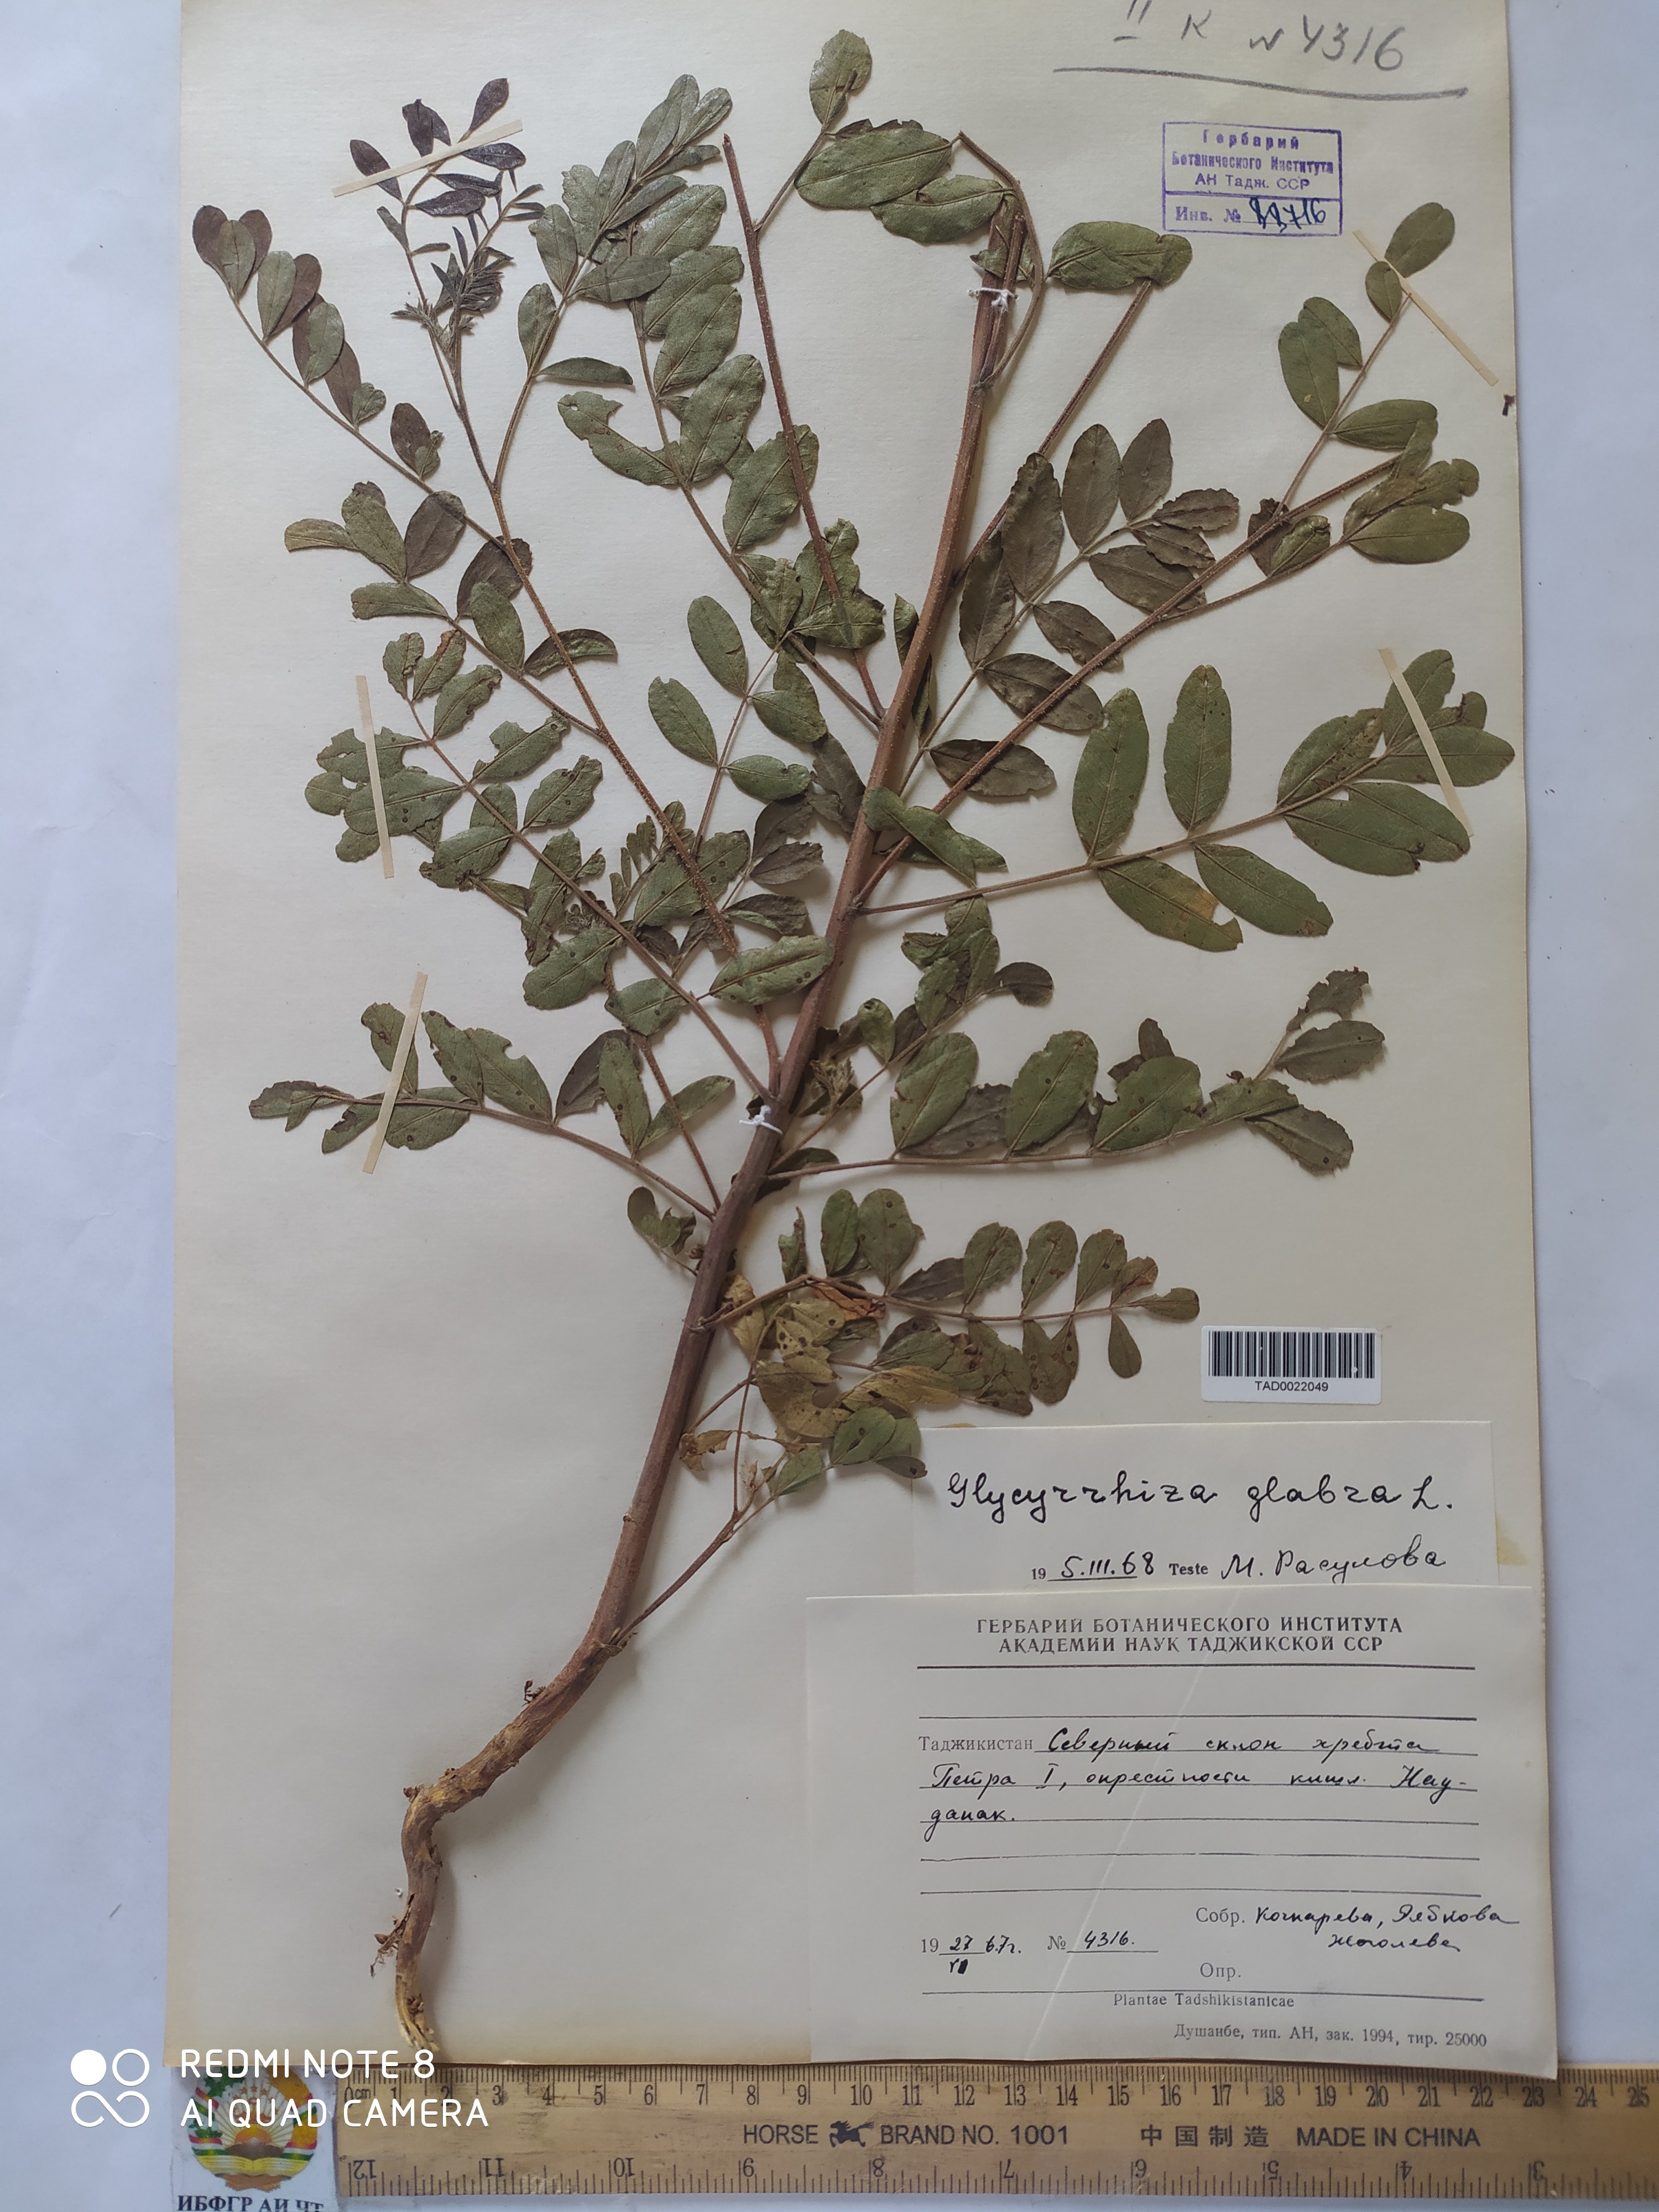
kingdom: Plantae
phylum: Tracheophyta
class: Magnoliopsida
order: Fabales
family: Fabaceae
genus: Glycyrrhiza
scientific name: Glycyrrhiza glabra
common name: Liquorice
